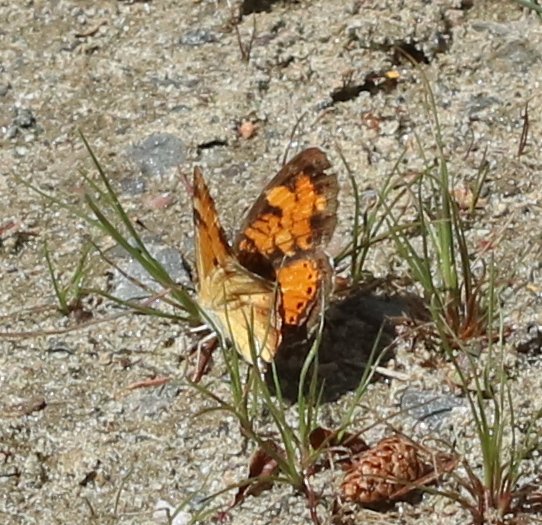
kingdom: Animalia
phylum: Arthropoda
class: Insecta
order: Lepidoptera
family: Nymphalidae
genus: Phyciodes
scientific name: Phyciodes tharos
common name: Northern Crescent
